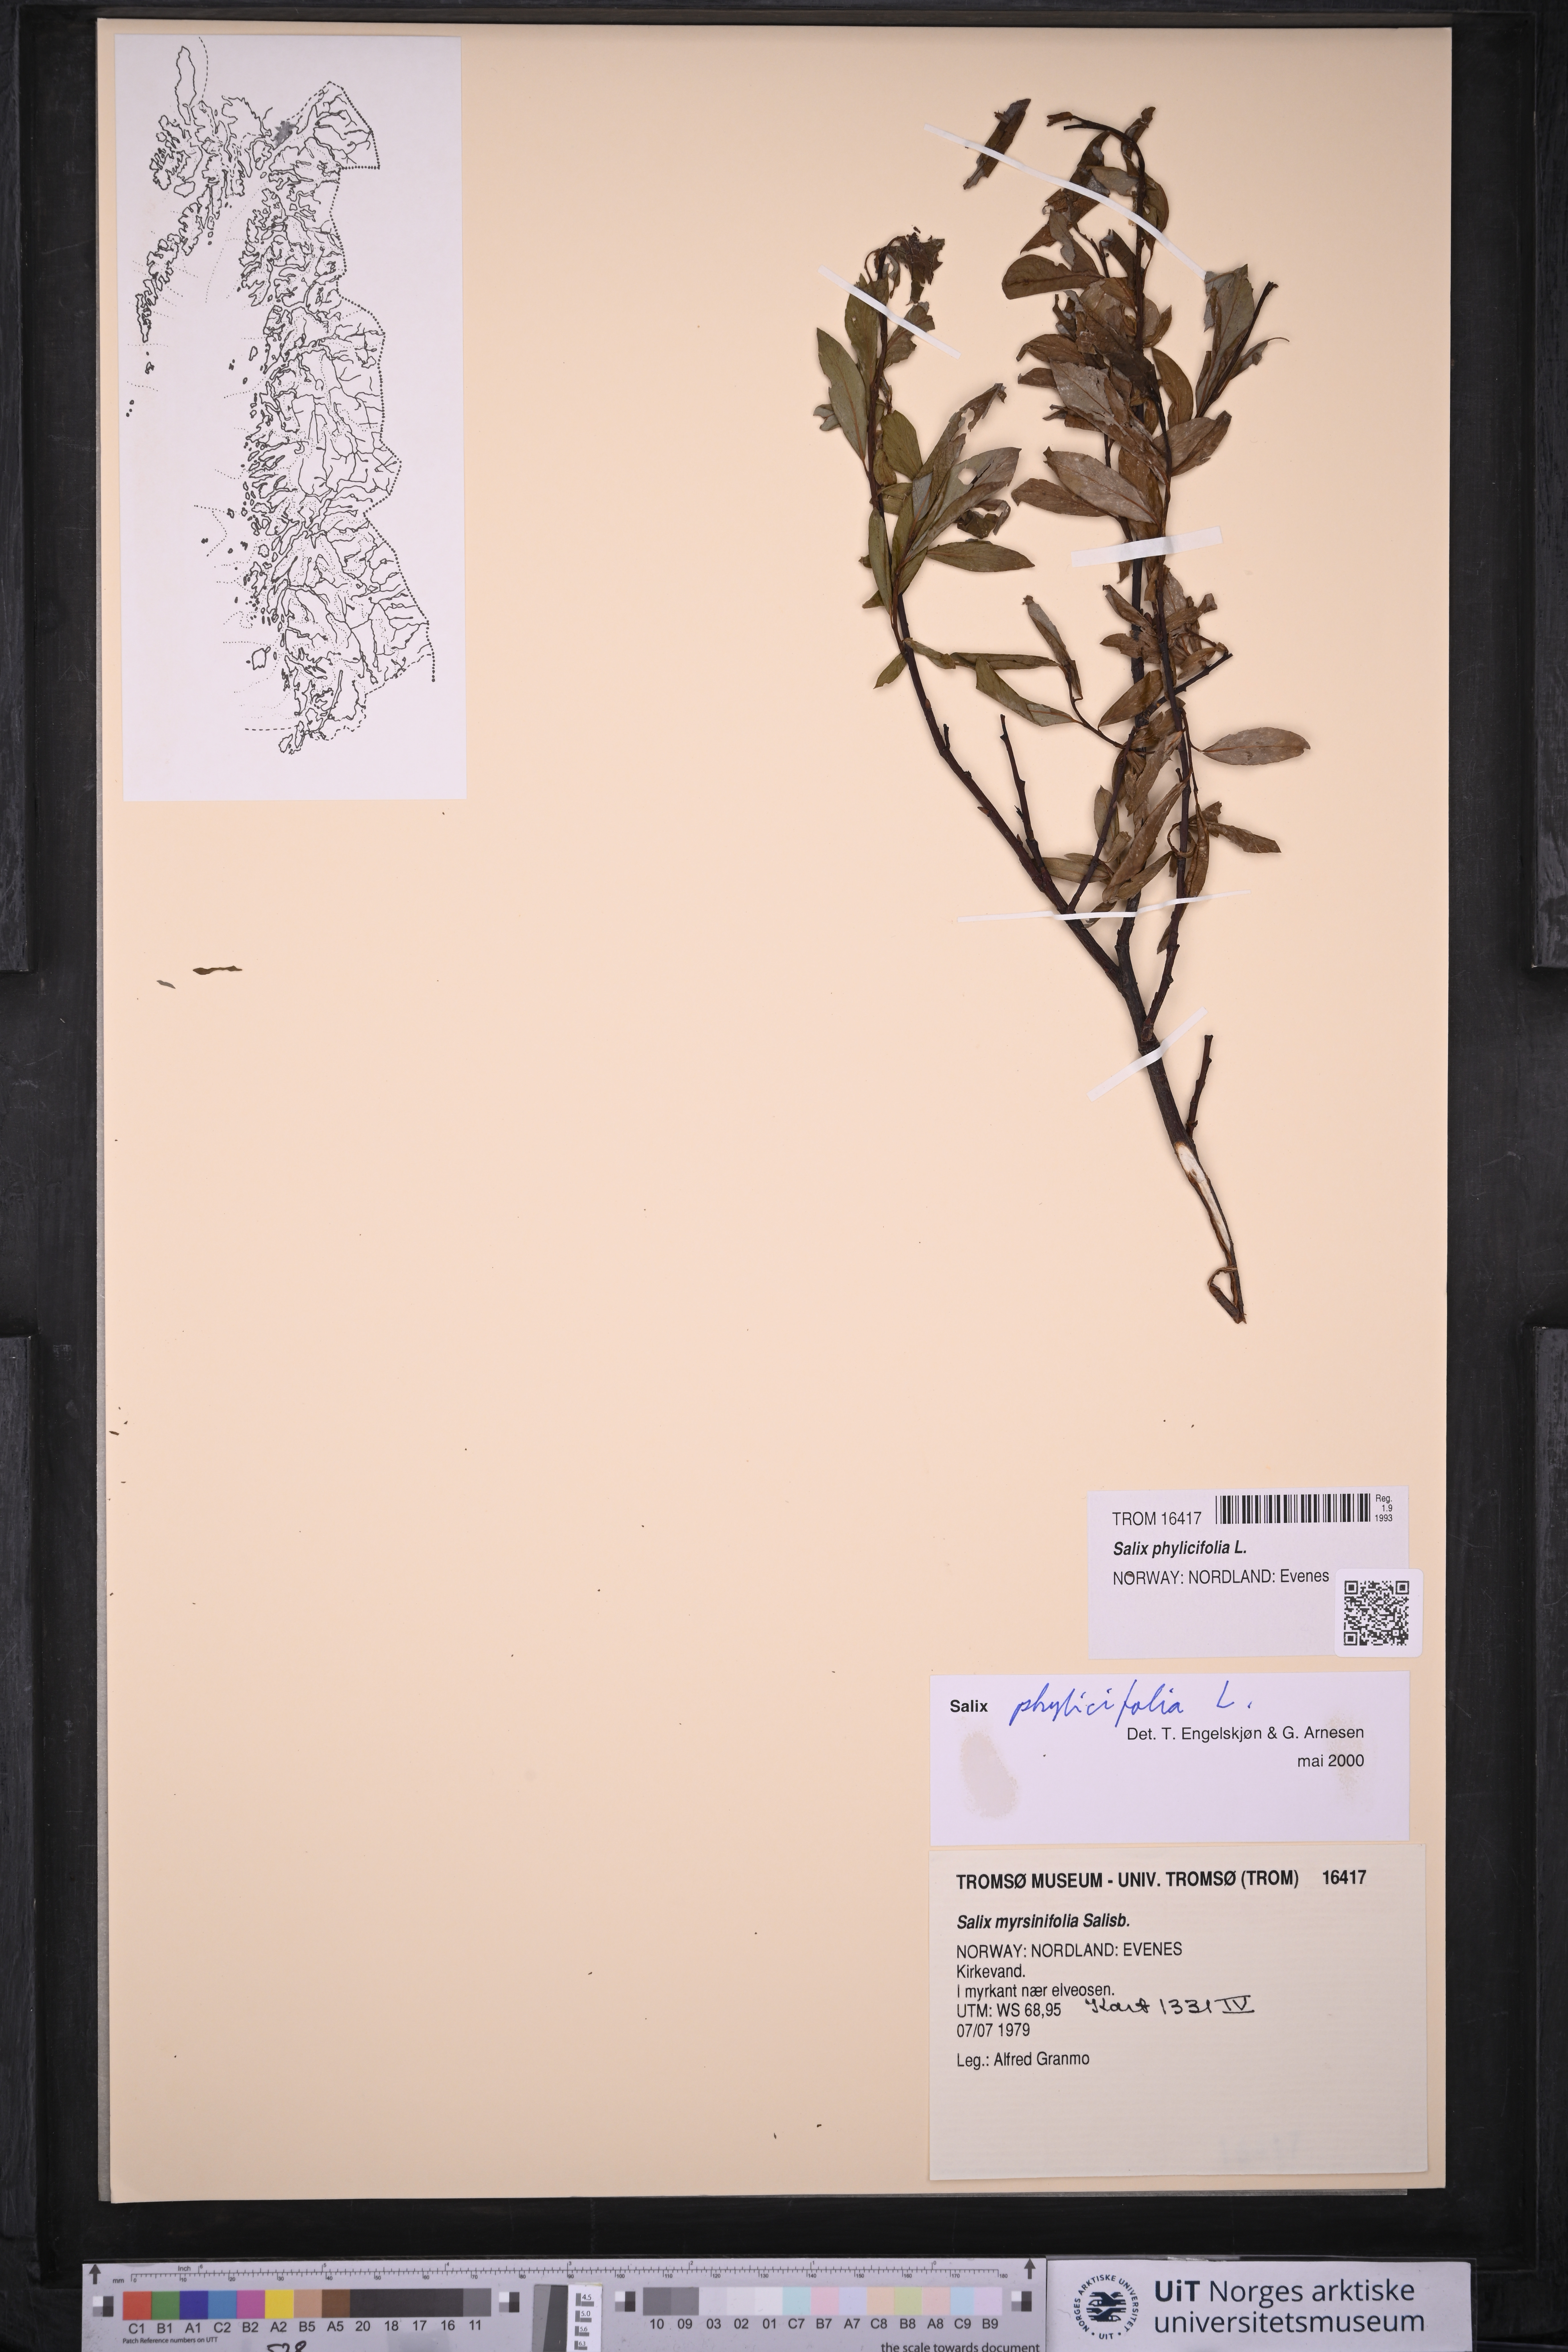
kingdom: Plantae
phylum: Tracheophyta
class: Magnoliopsida
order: Malpighiales
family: Salicaceae
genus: Salix
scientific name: Salix phylicifolia
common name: Tea-leaved willow
